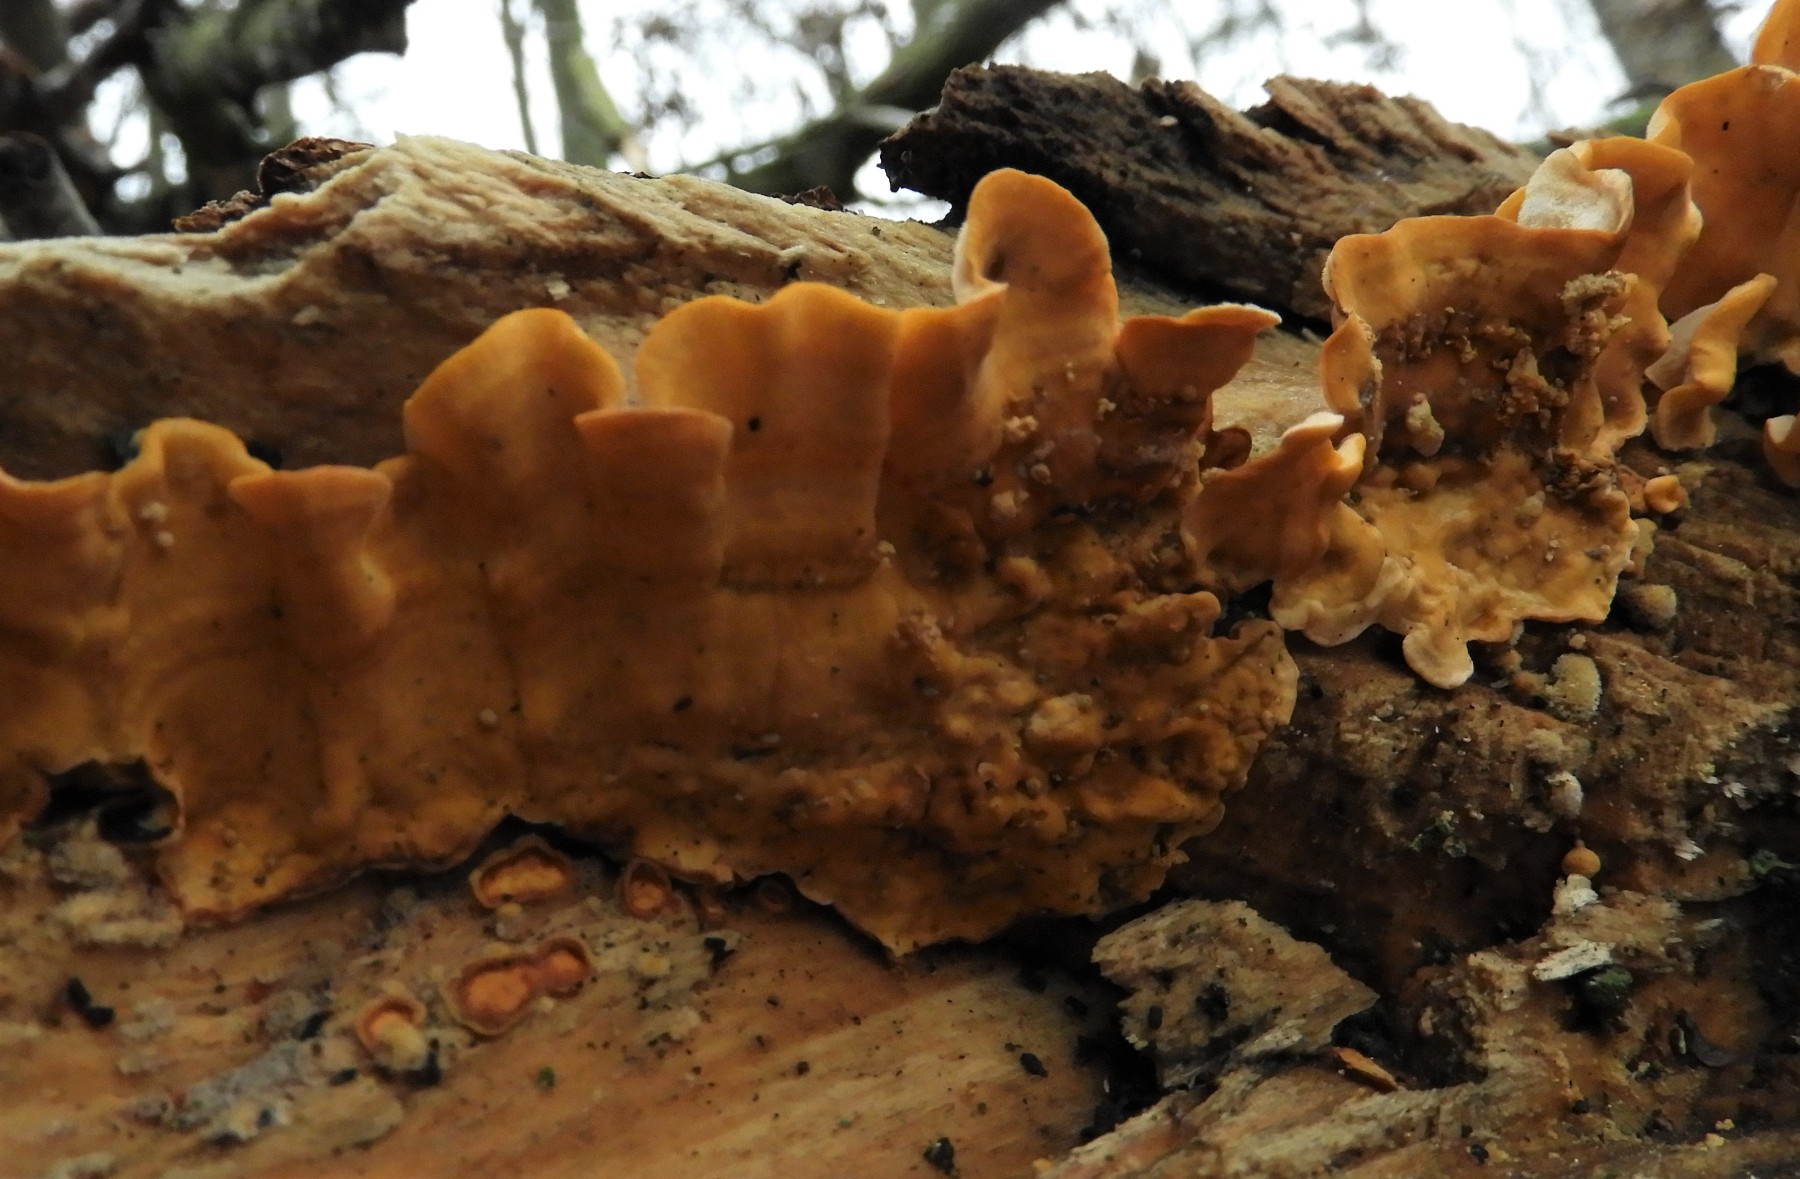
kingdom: Fungi
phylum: Basidiomycota
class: Agaricomycetes
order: Russulales
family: Stereaceae
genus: Stereum
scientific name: Stereum hirsutum
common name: håret lædersvamp
